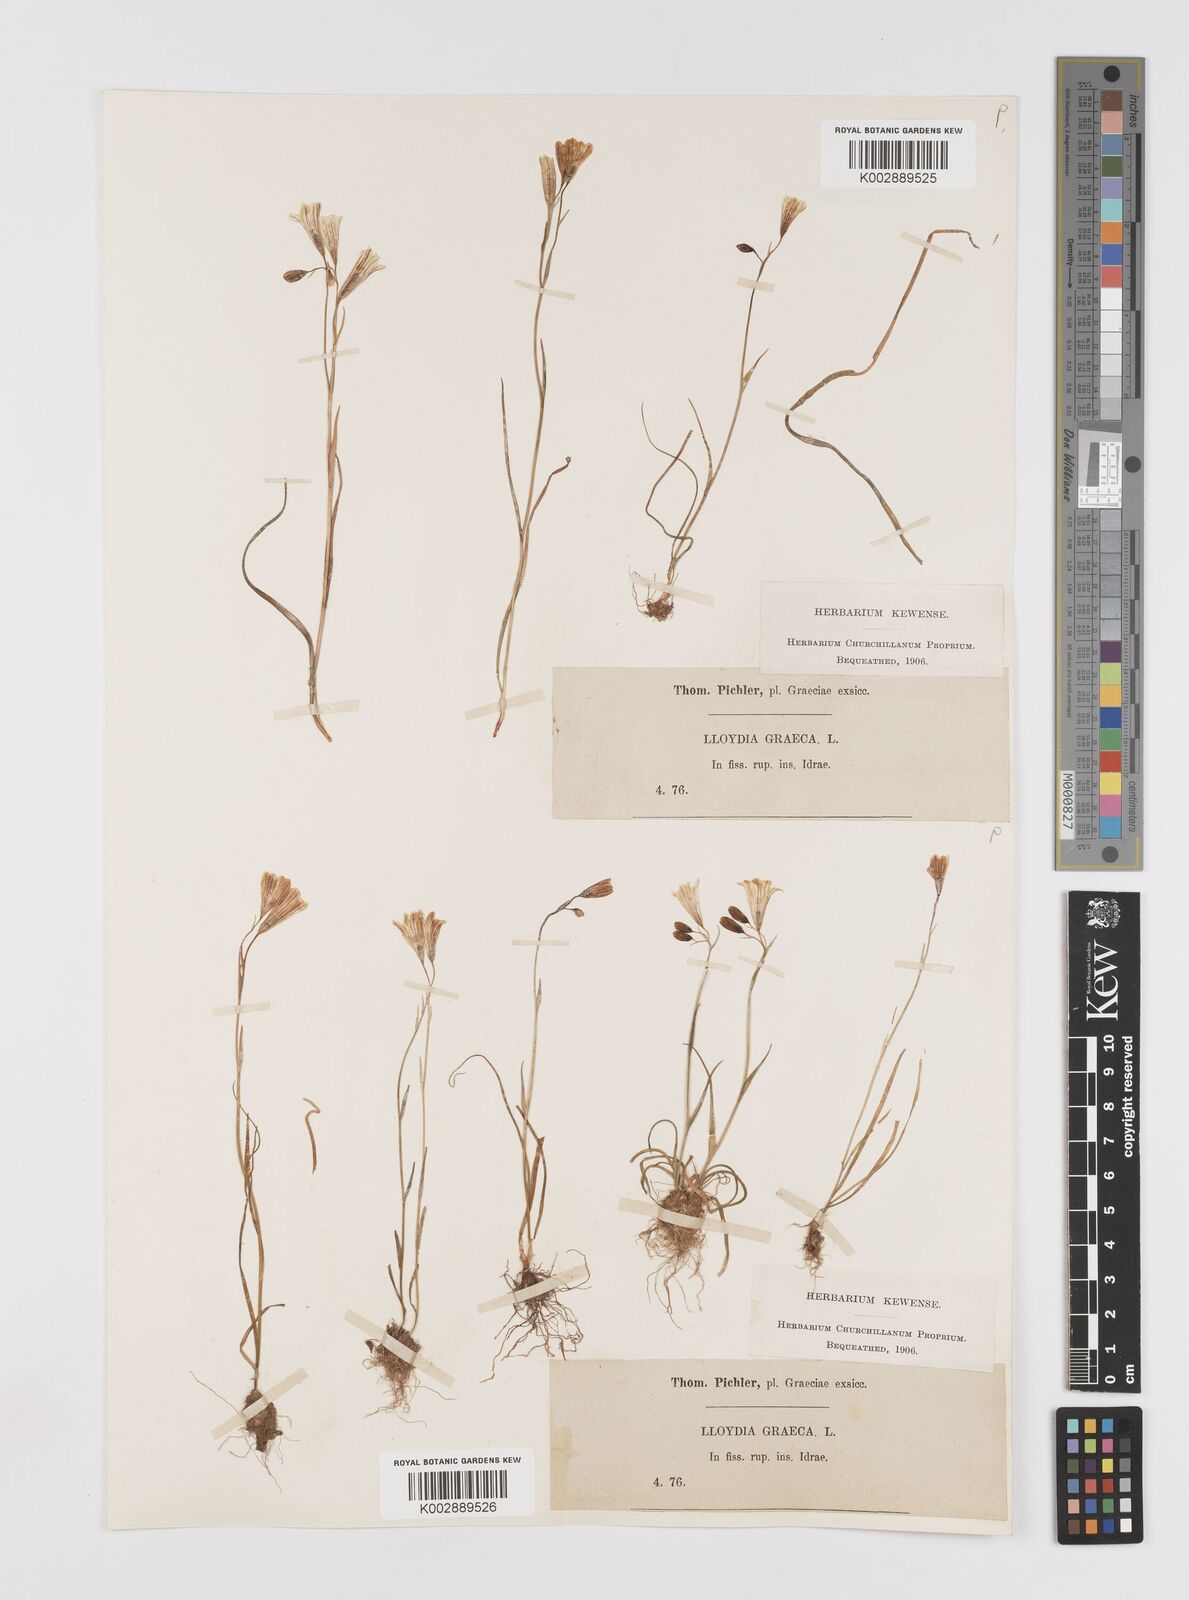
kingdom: Plantae
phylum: Tracheophyta
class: Liliopsida
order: Liliales
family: Liliaceae
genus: Gagea
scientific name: Gagea graeca
